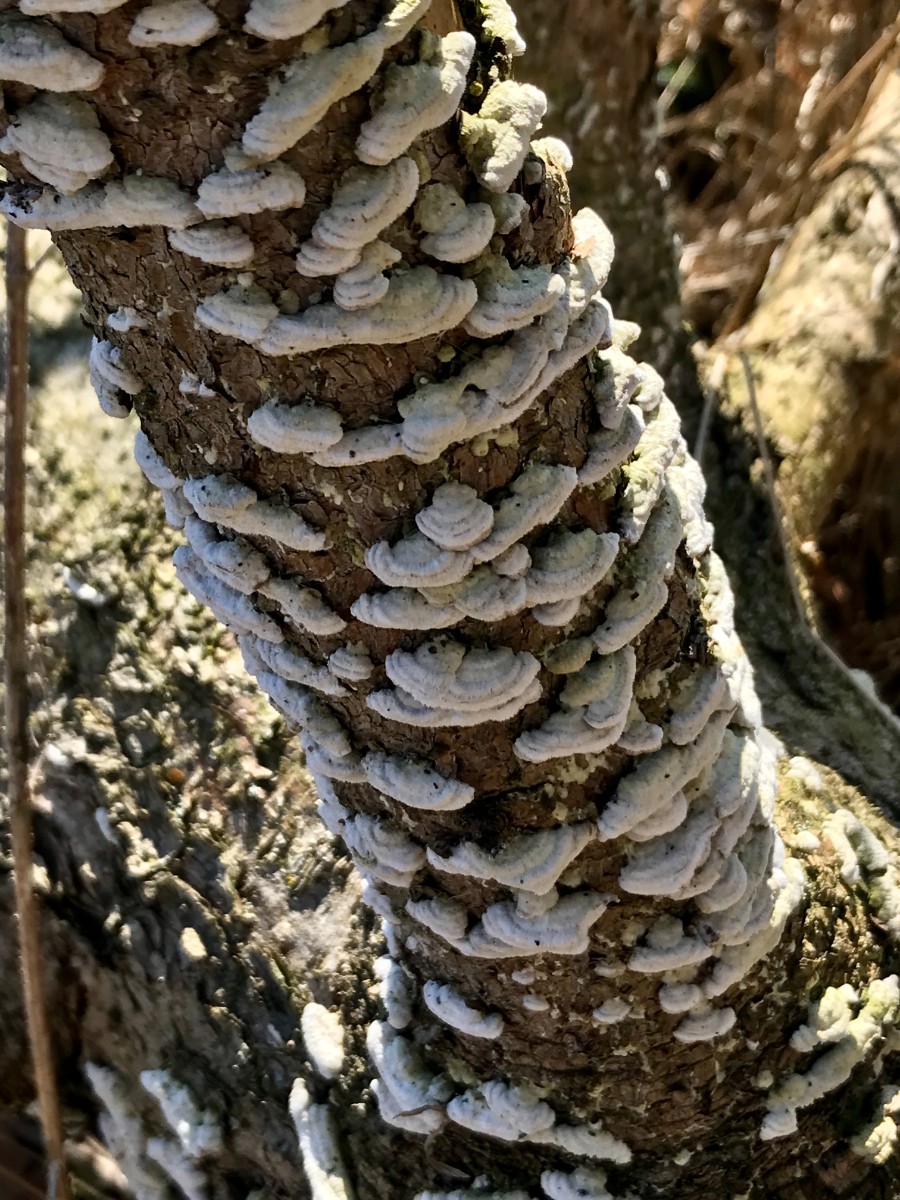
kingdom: Fungi
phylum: Basidiomycota
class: Agaricomycetes
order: Hymenochaetales
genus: Trichaptum
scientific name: Trichaptum abietinum
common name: almindelig violporesvamp
